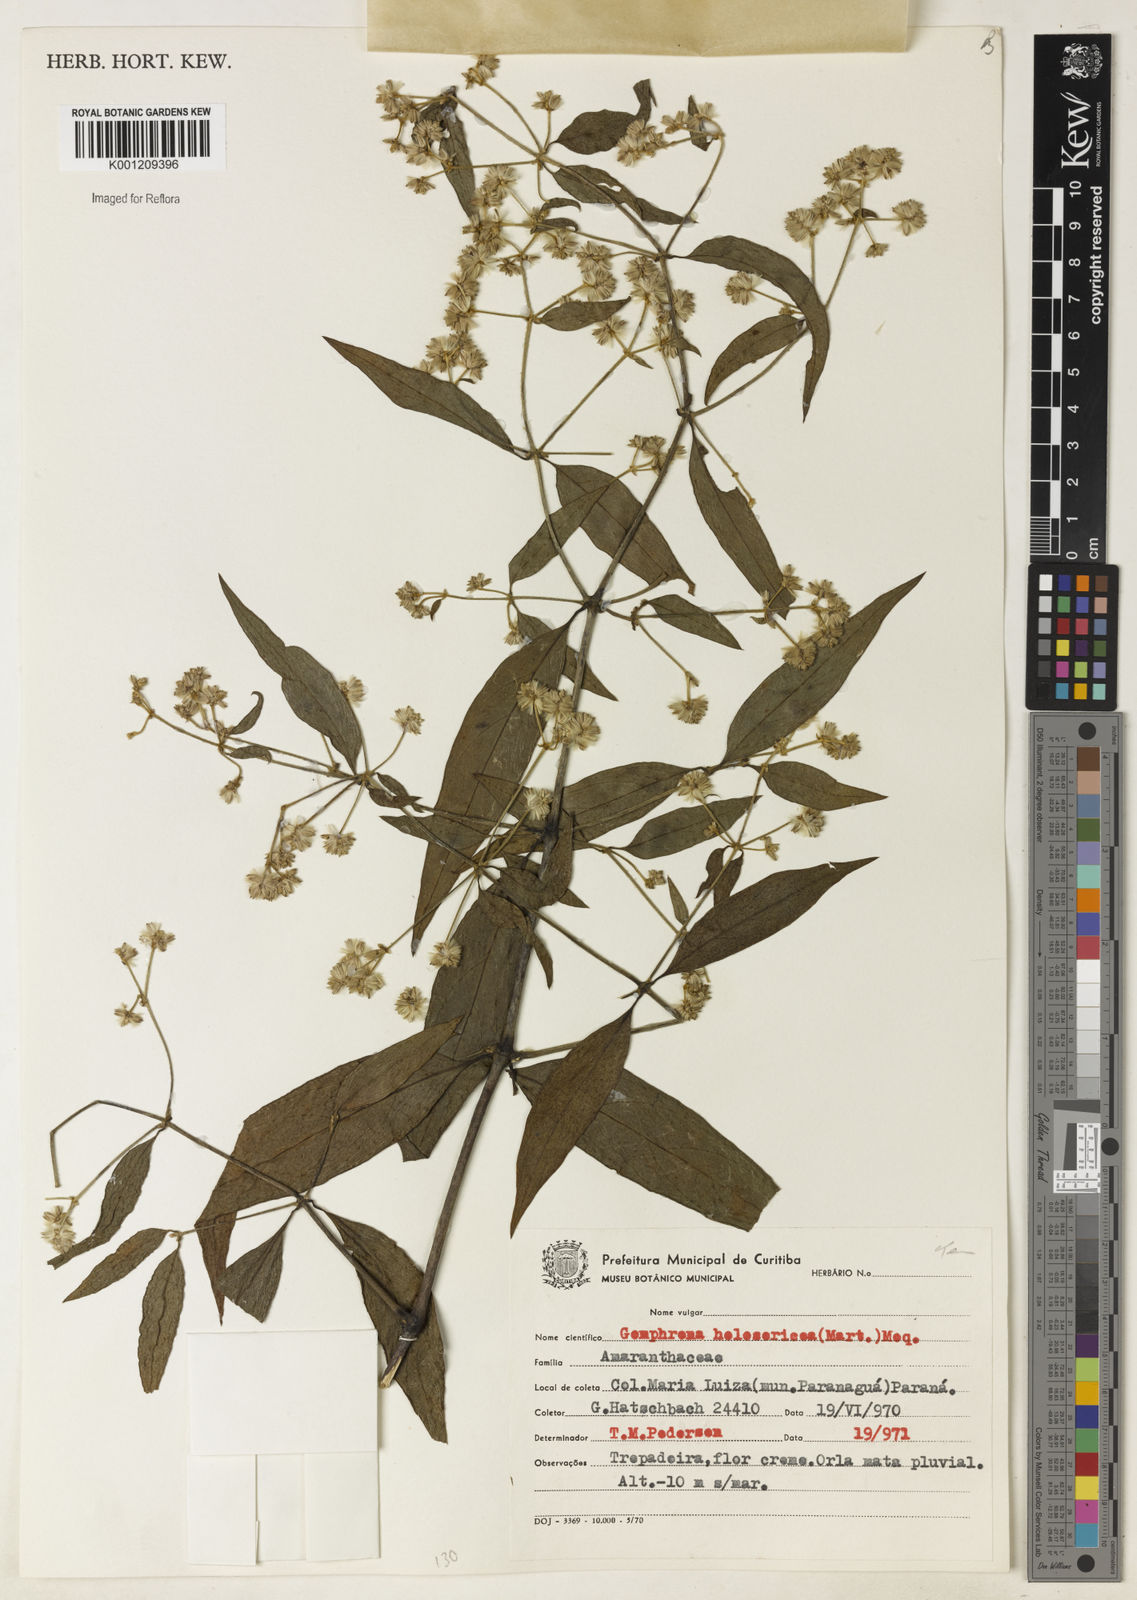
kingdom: Plantae
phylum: Tracheophyta
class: Magnoliopsida
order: Caryophyllales
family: Amaranthaceae
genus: Gomphrena
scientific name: Gomphrena vaga
